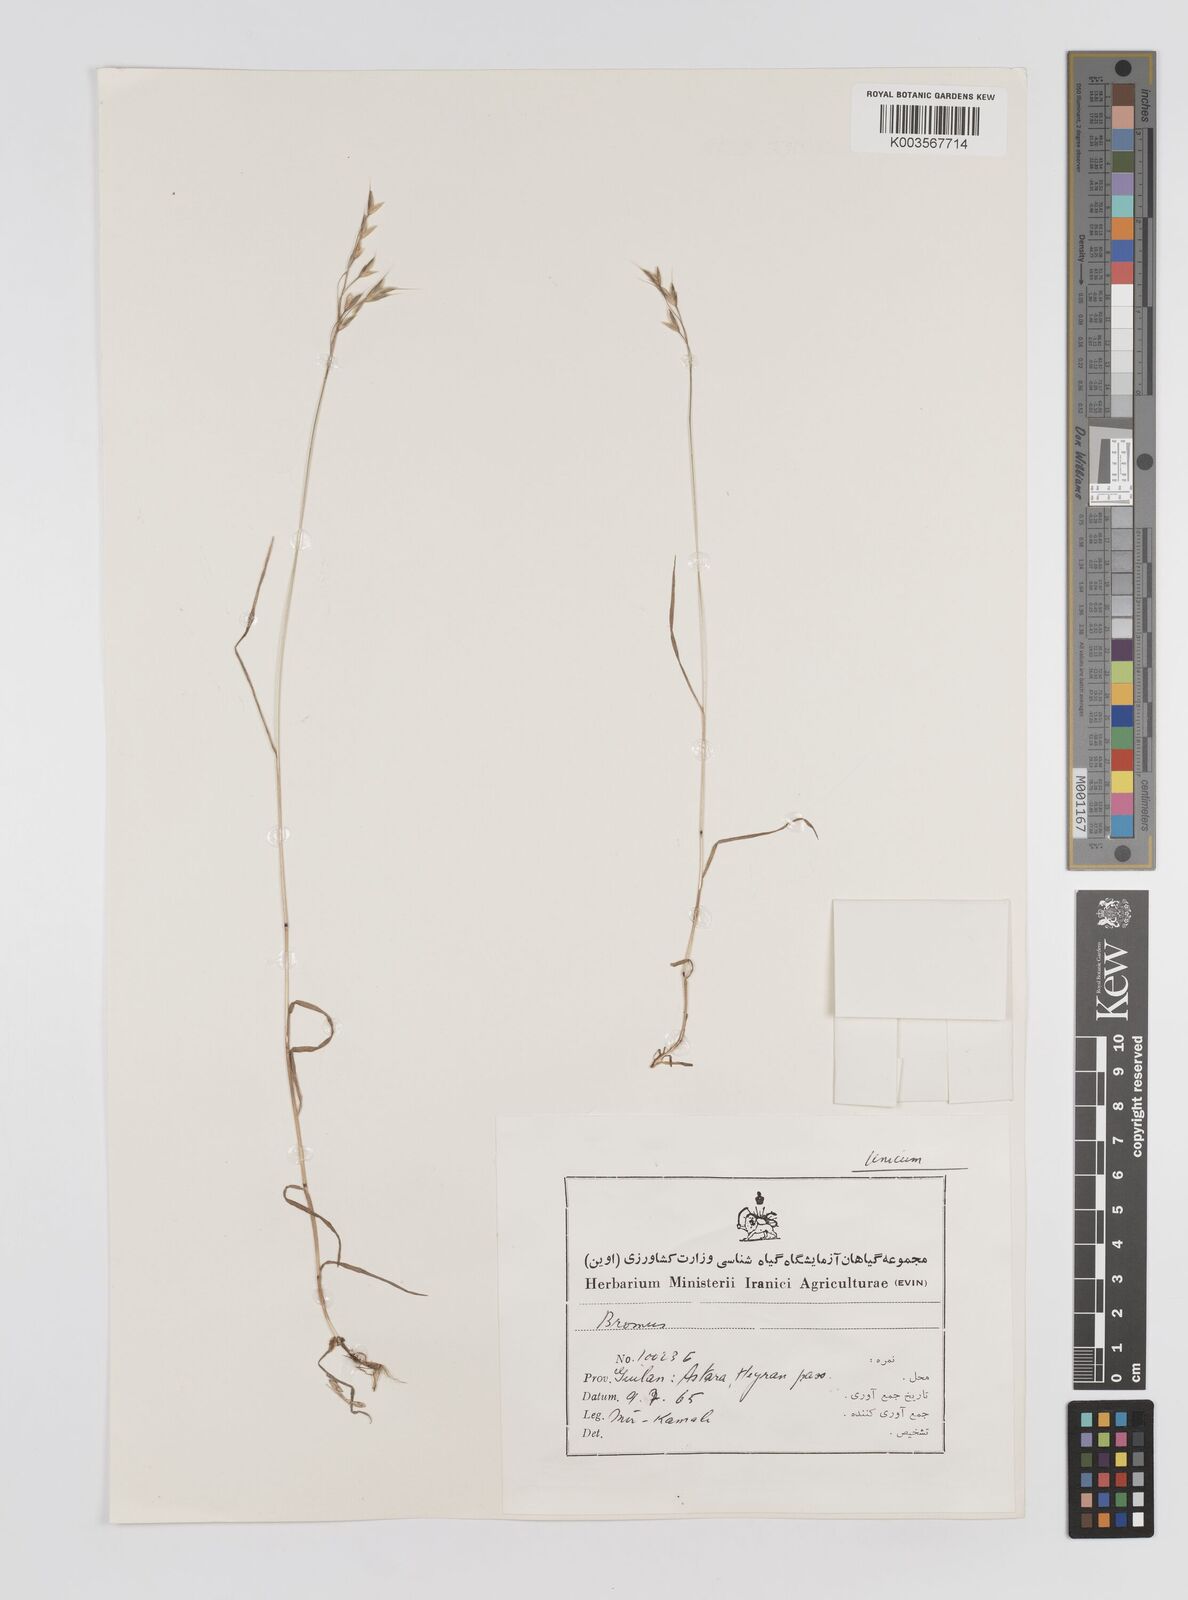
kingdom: Plantae
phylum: Tracheophyta
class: Liliopsida
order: Poales
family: Poaceae
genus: Bromus
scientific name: Bromus
